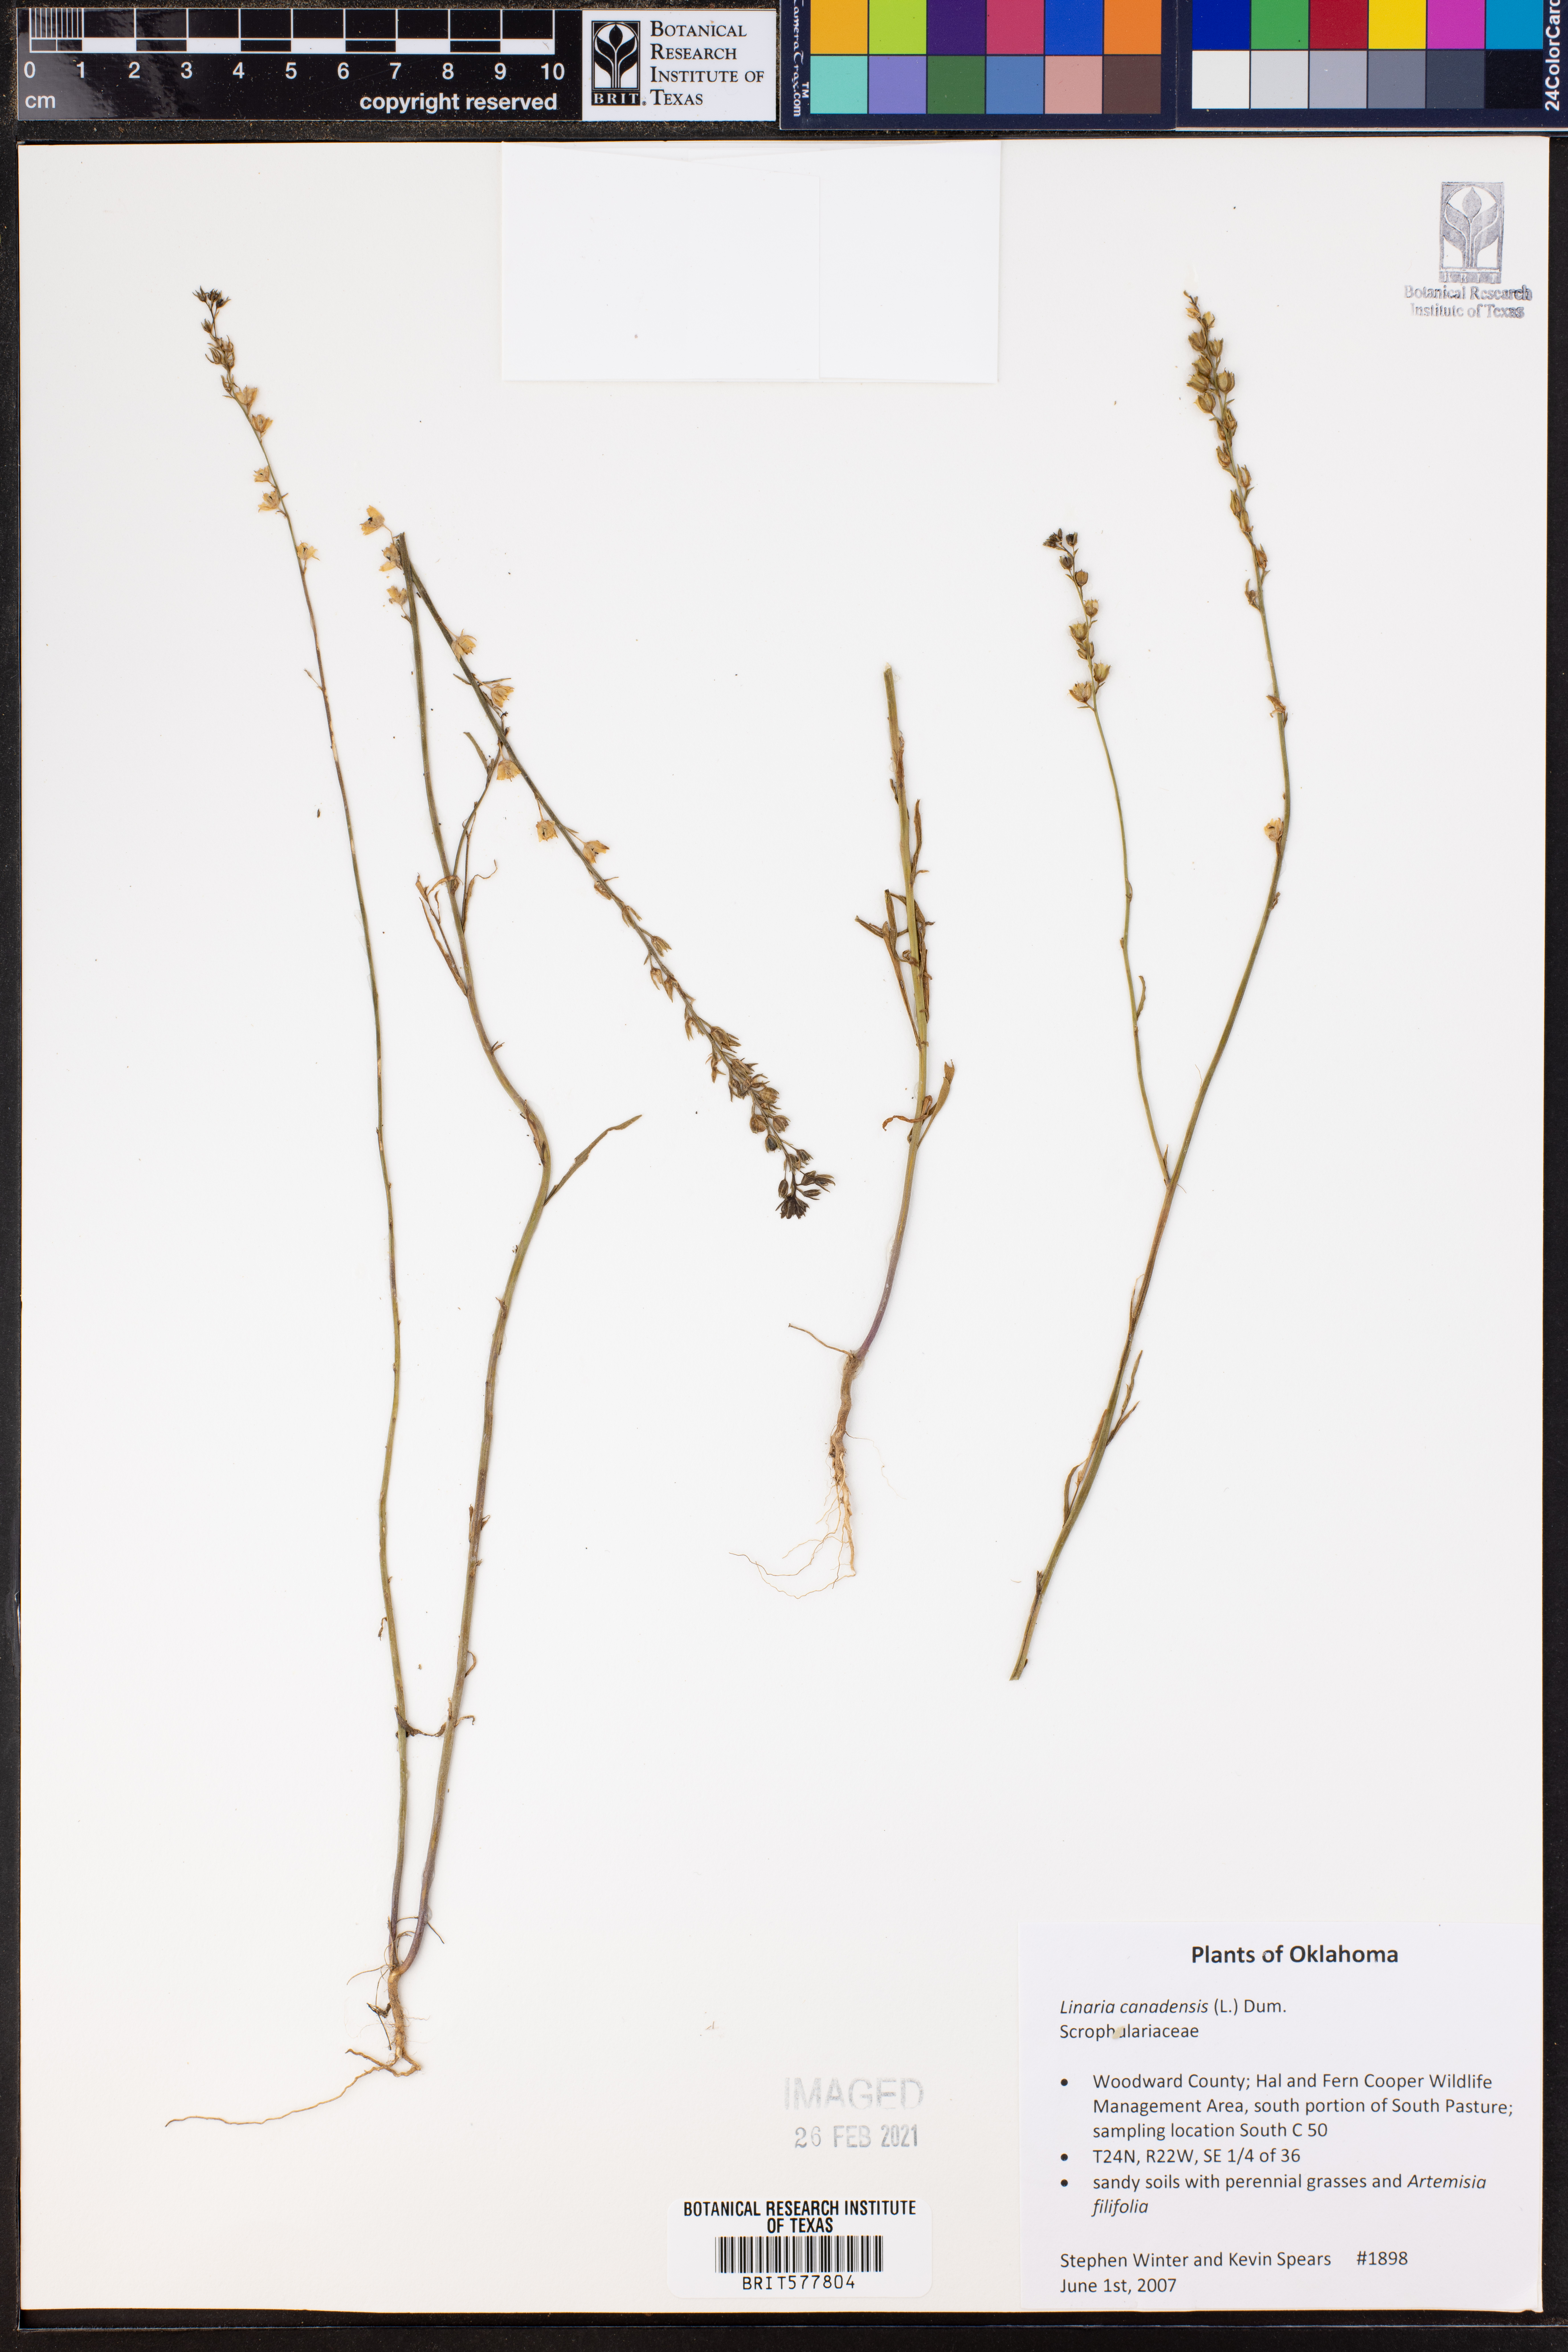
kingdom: Plantae
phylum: Tracheophyta
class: Magnoliopsida
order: Lamiales
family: Plantaginaceae
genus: Nuttallanthus
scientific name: Nuttallanthus canadensis
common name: Blue toadflax
